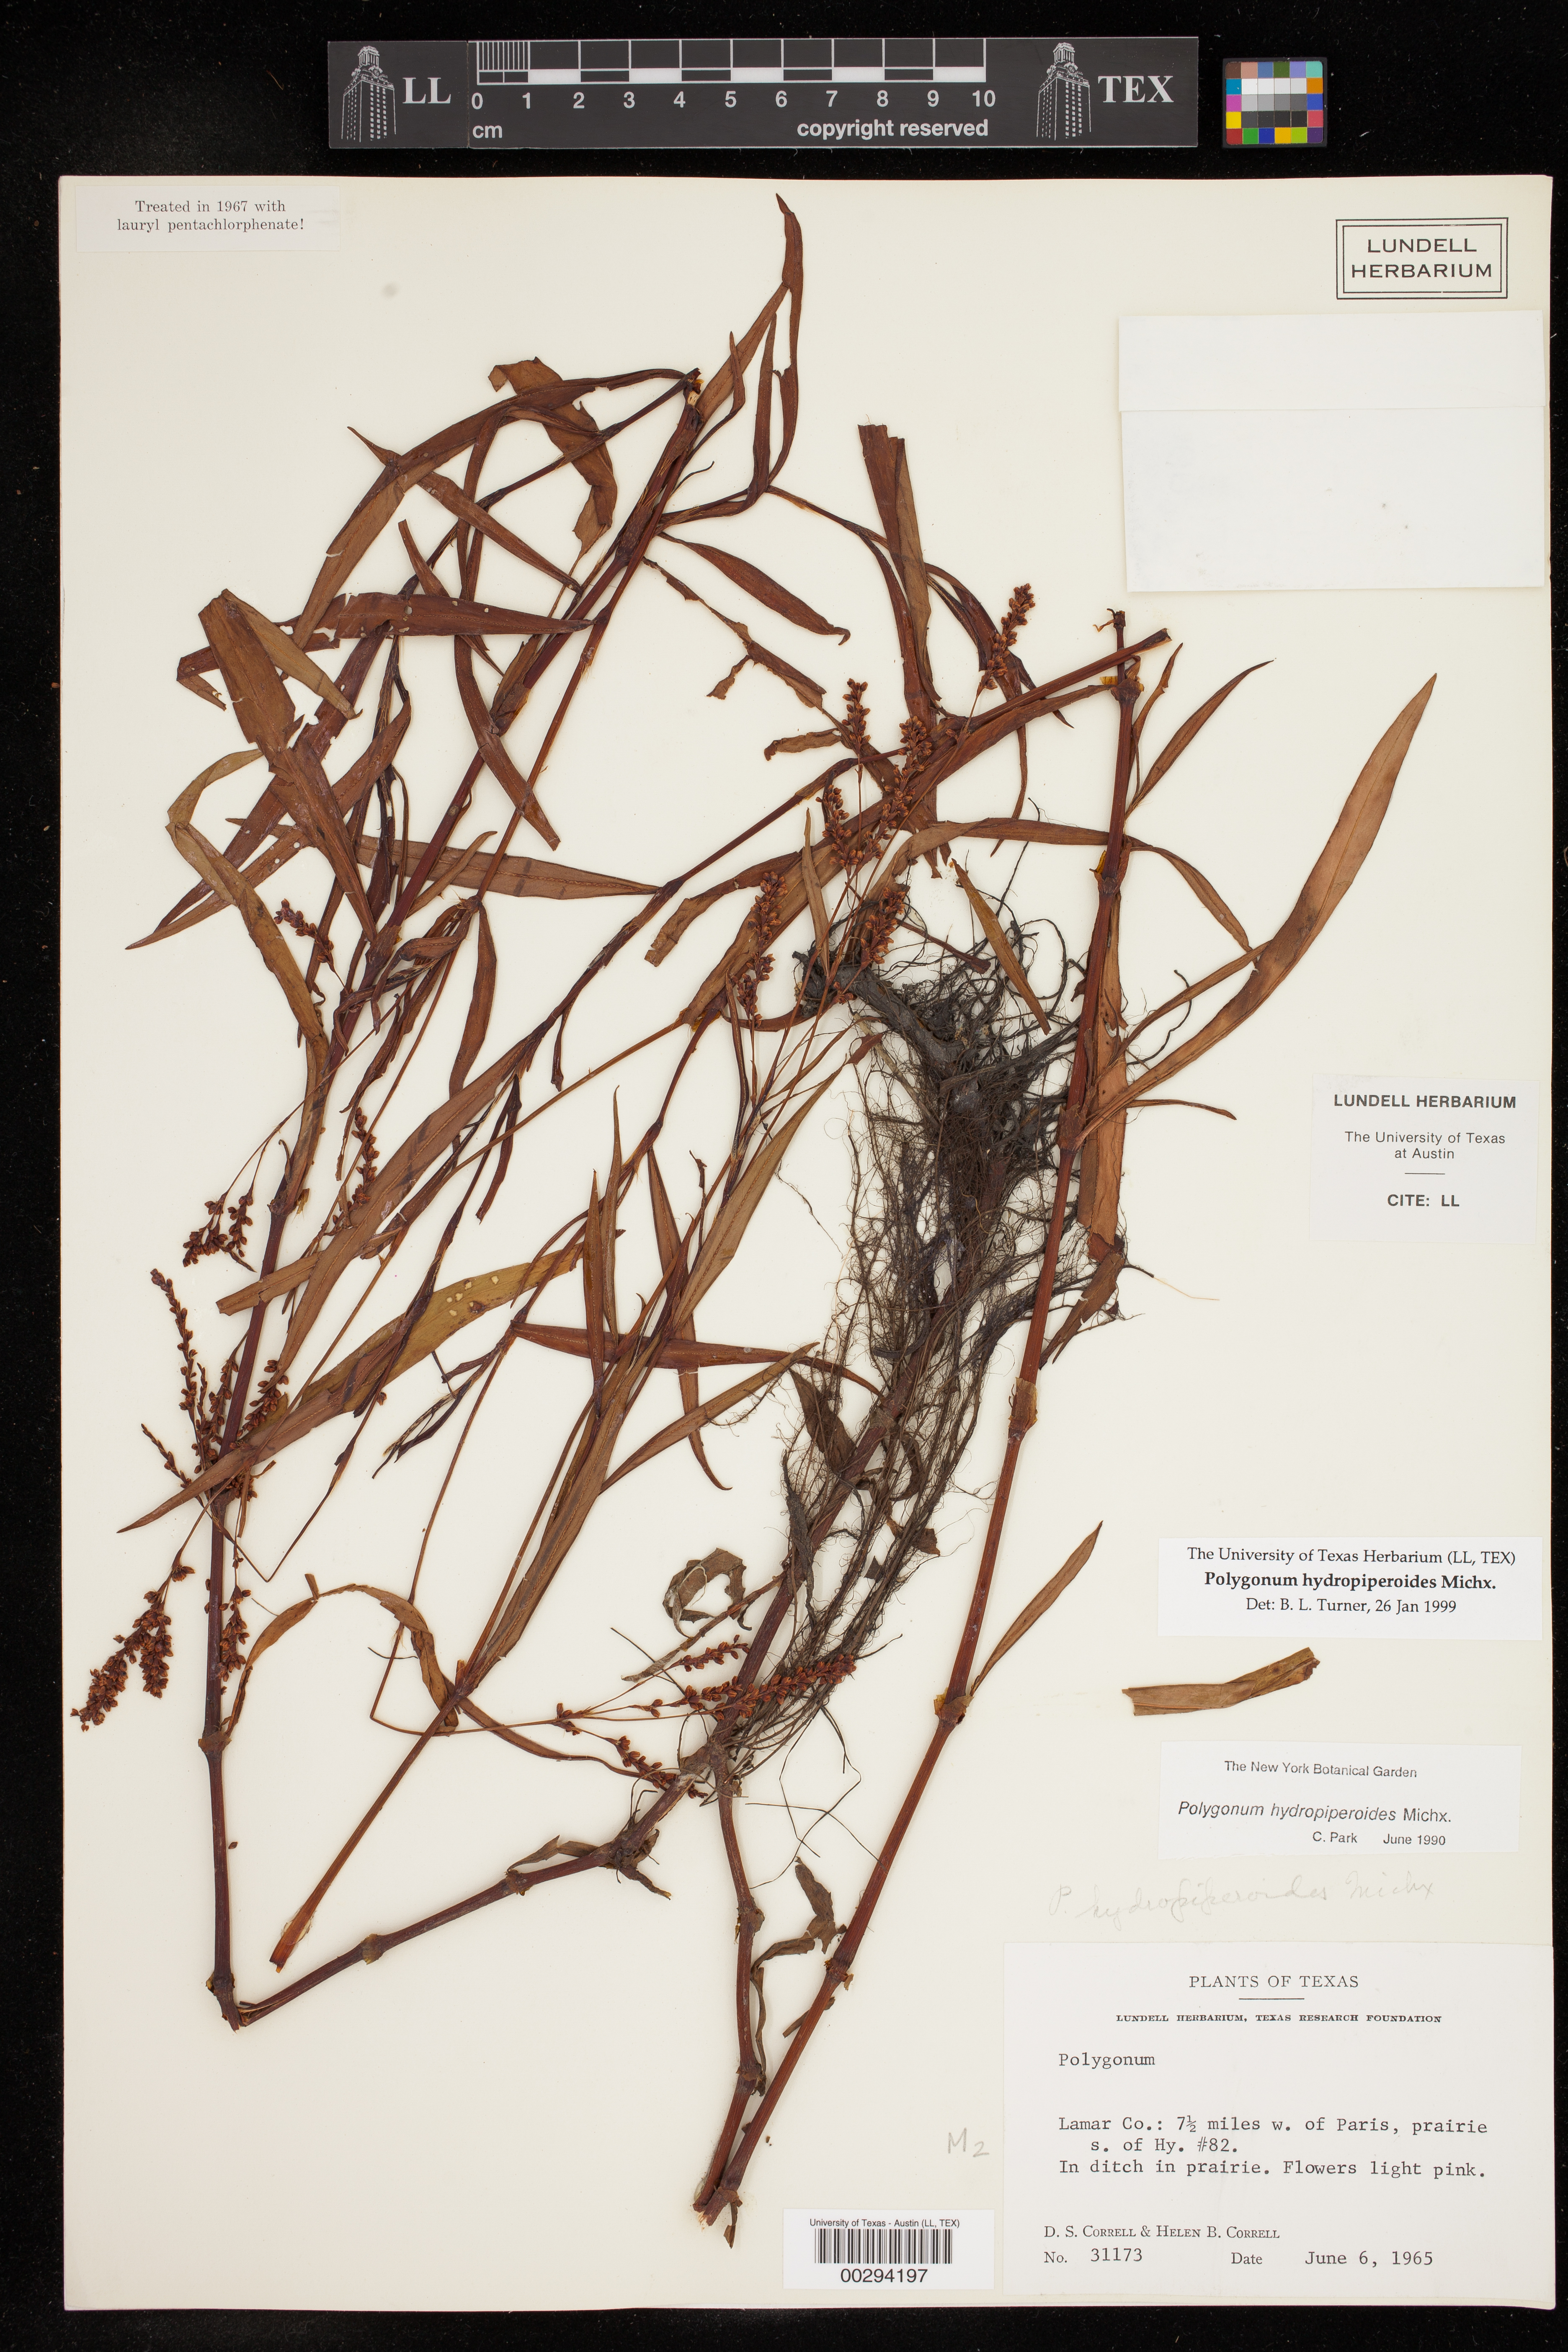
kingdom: Plantae
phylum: Tracheophyta
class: Magnoliopsida
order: Caryophyllales
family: Polygonaceae
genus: Persicaria
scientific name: Persicaria hydropiperoides
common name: Swamp smartweed
